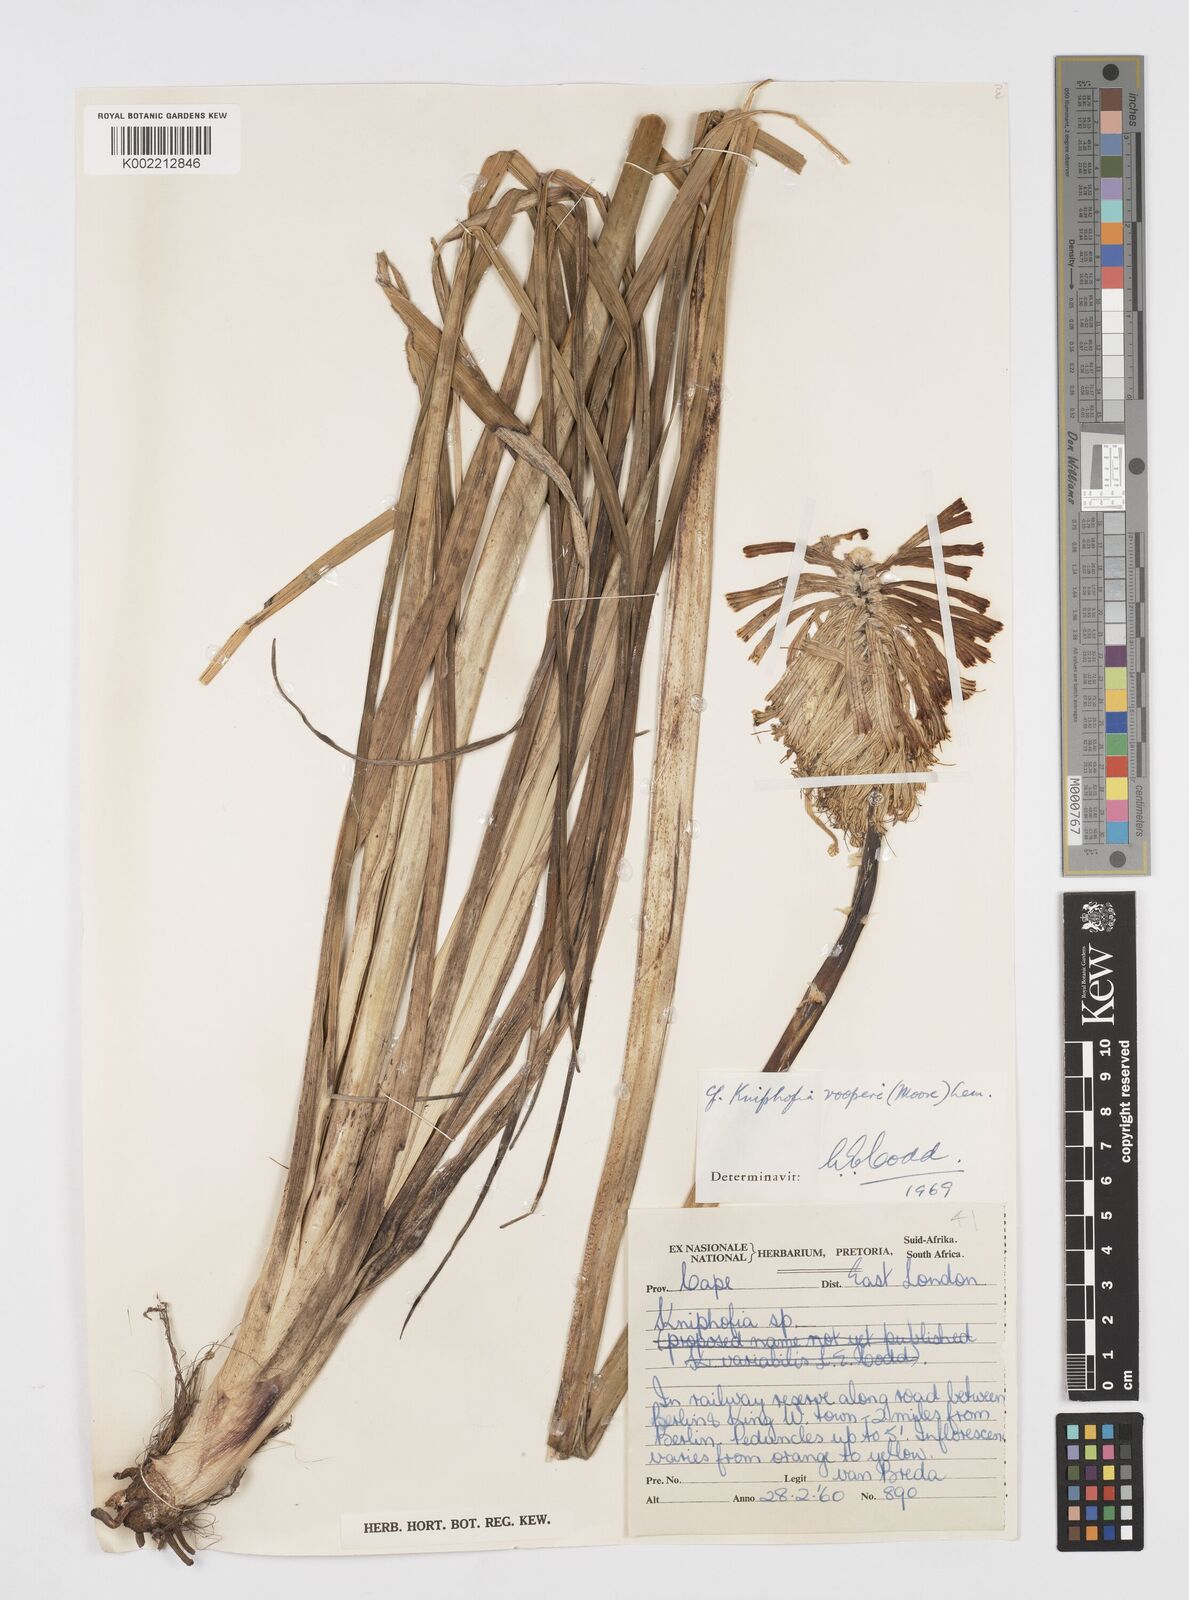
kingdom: Plantae
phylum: Tracheophyta
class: Liliopsida
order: Asparagales
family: Asphodelaceae
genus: Kniphofia
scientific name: Kniphofia rooperi
